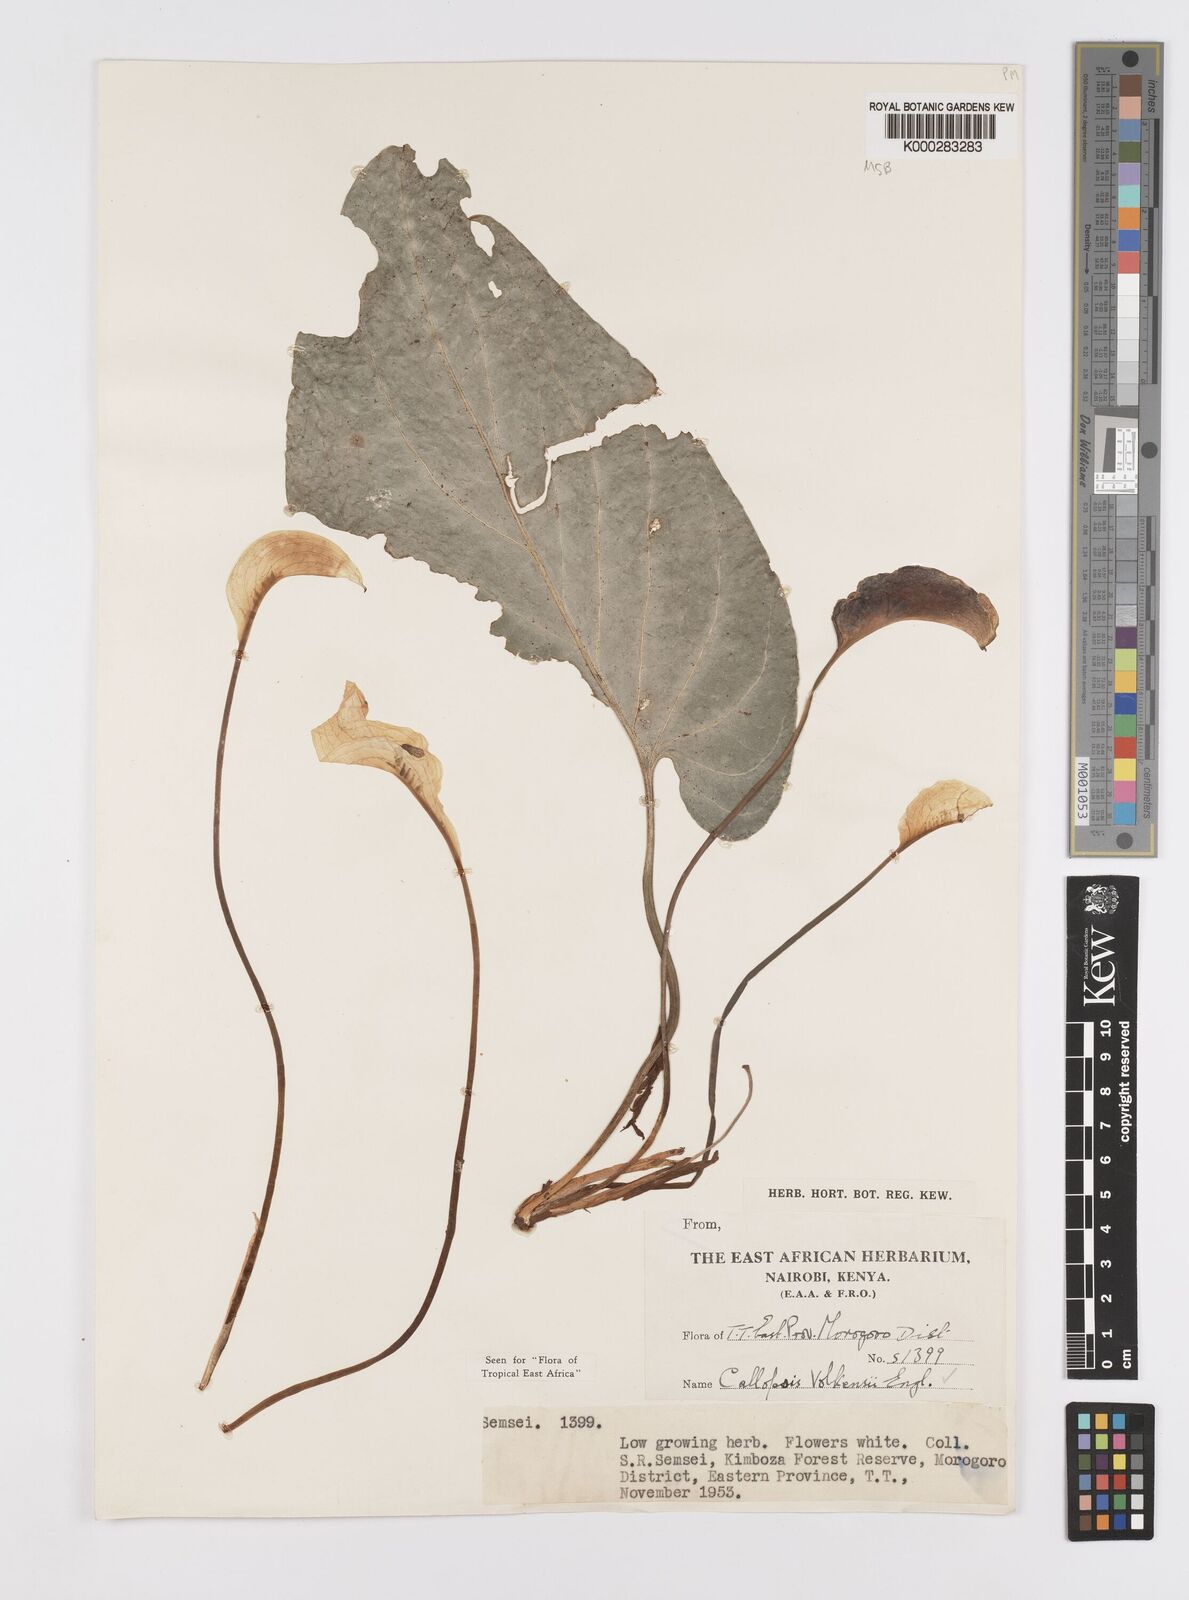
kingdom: Plantae
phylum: Tracheophyta
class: Liliopsida
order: Alismatales
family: Araceae
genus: Callopsis
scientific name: Callopsis volkensii
